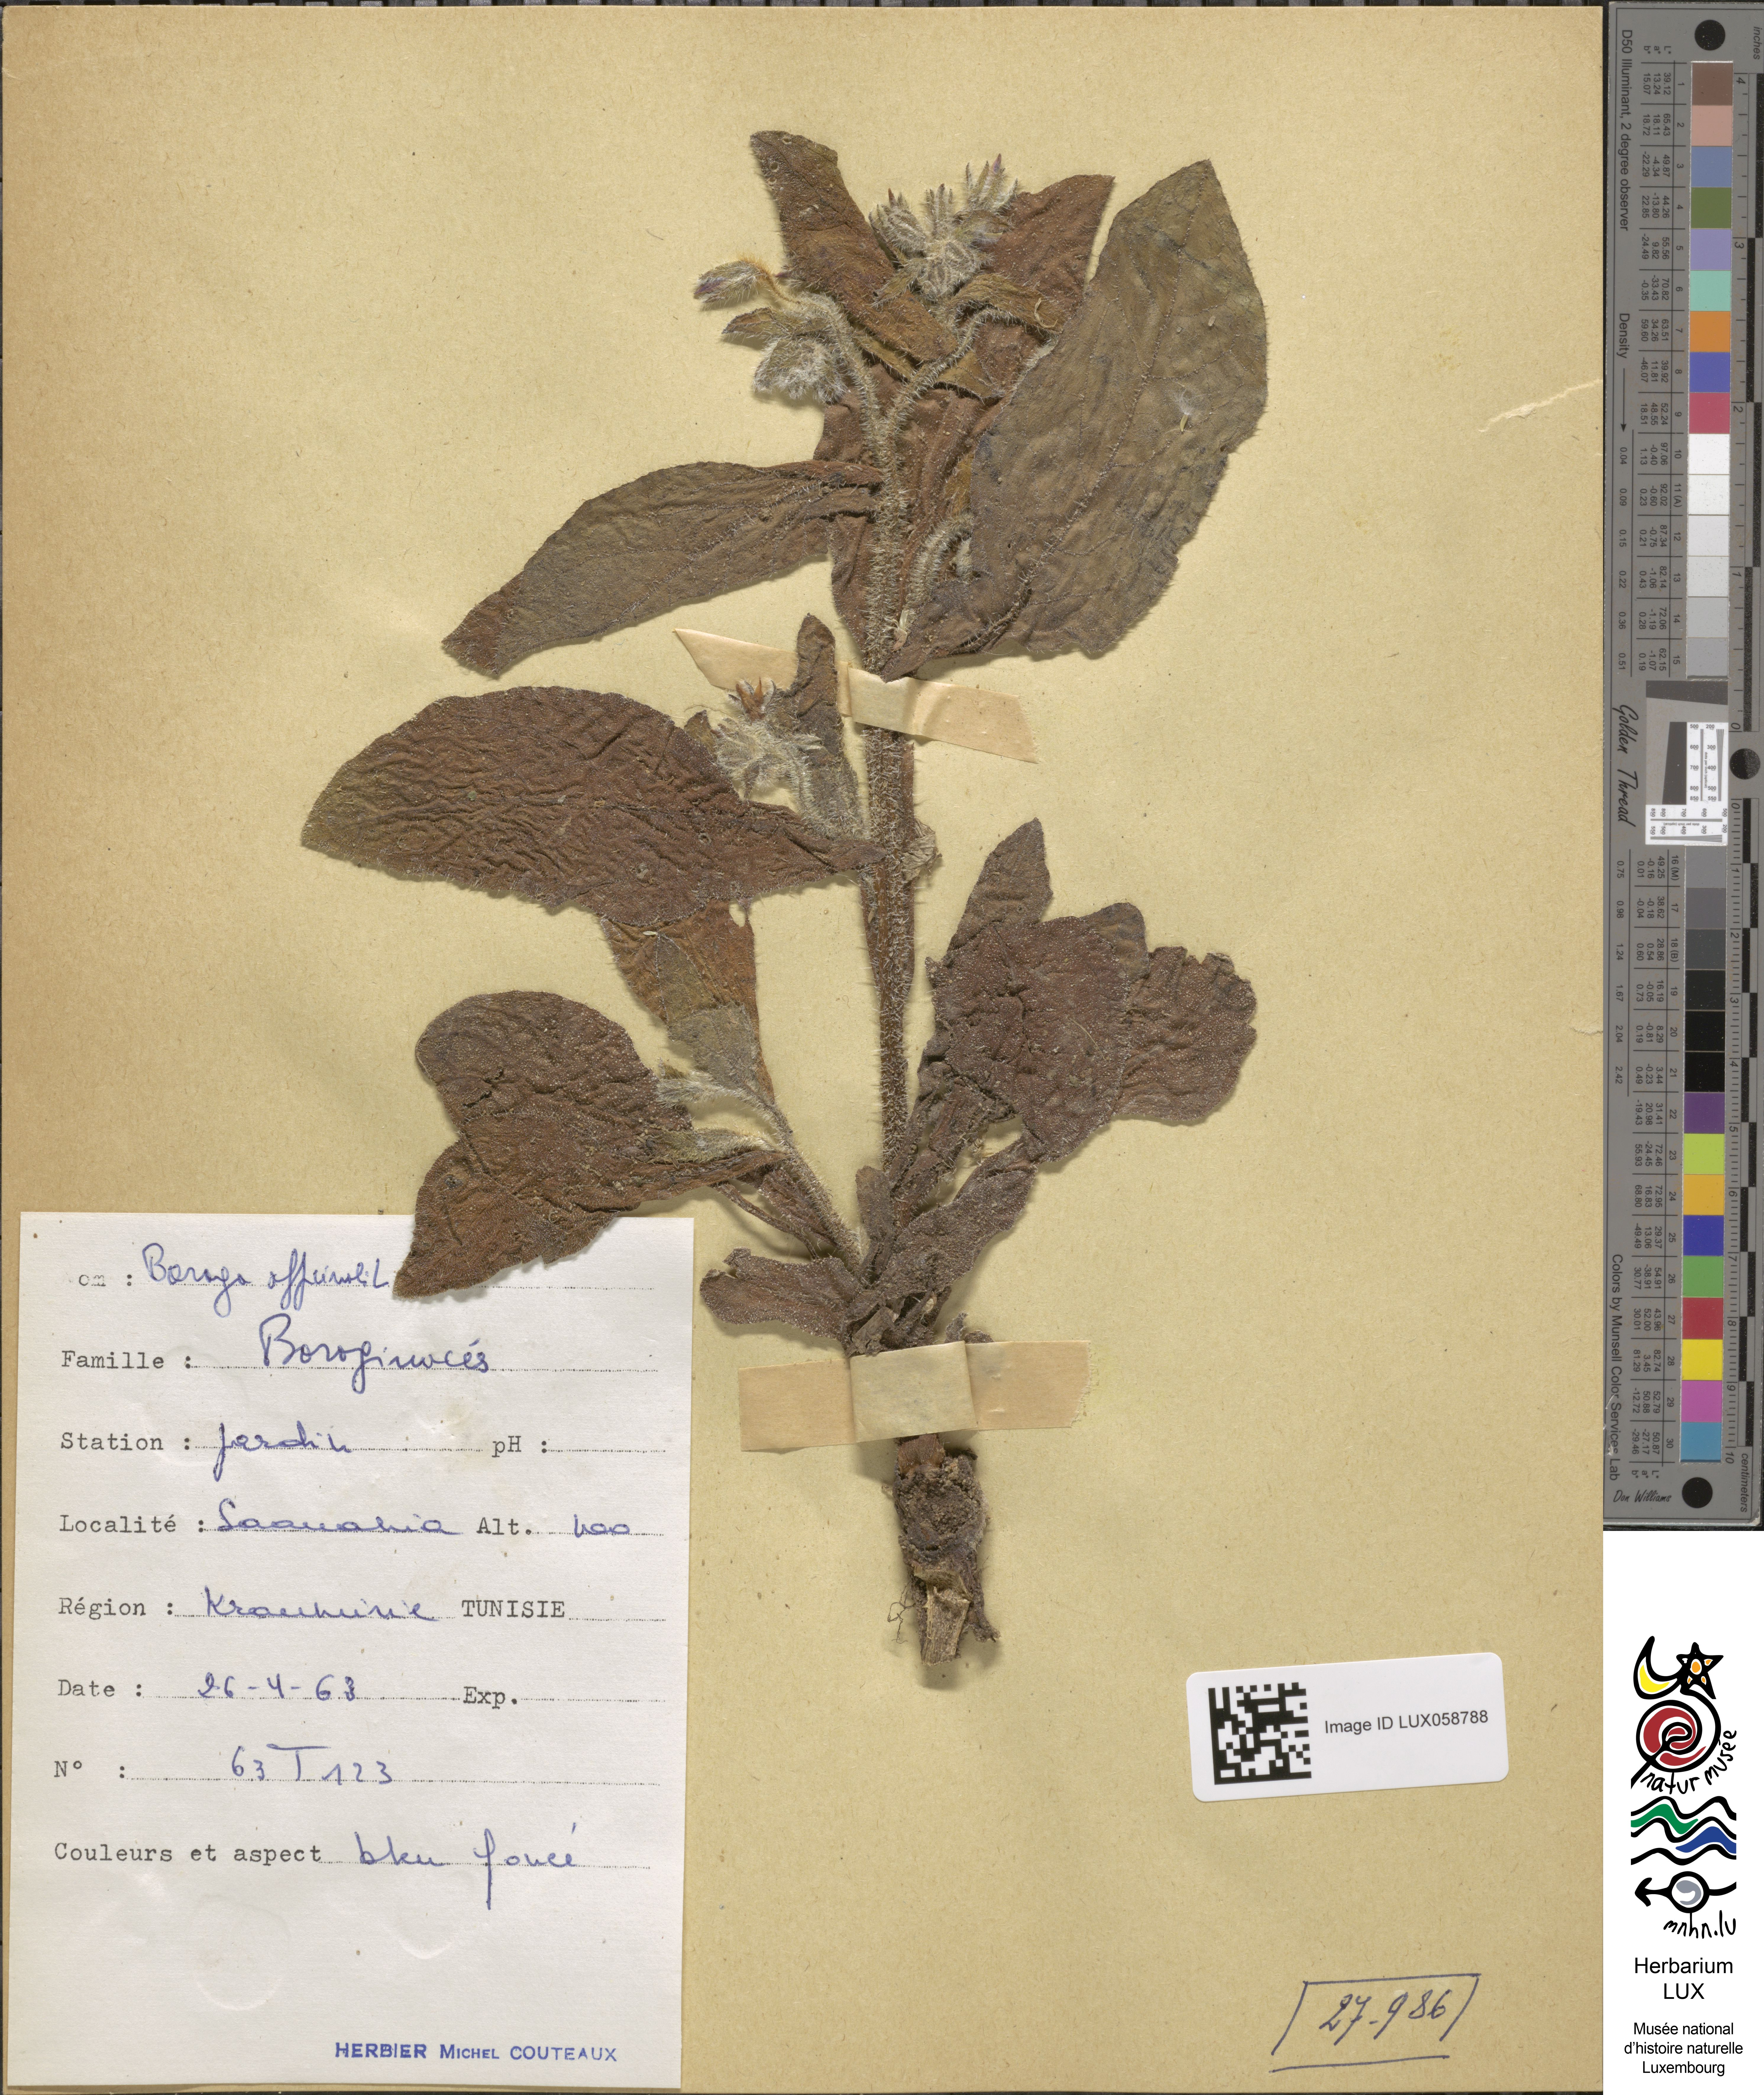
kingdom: Plantae
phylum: Tracheophyta
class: Magnoliopsida
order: Boraginales
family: Boraginaceae
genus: Borago
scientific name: Borago officinalis
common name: Borage
